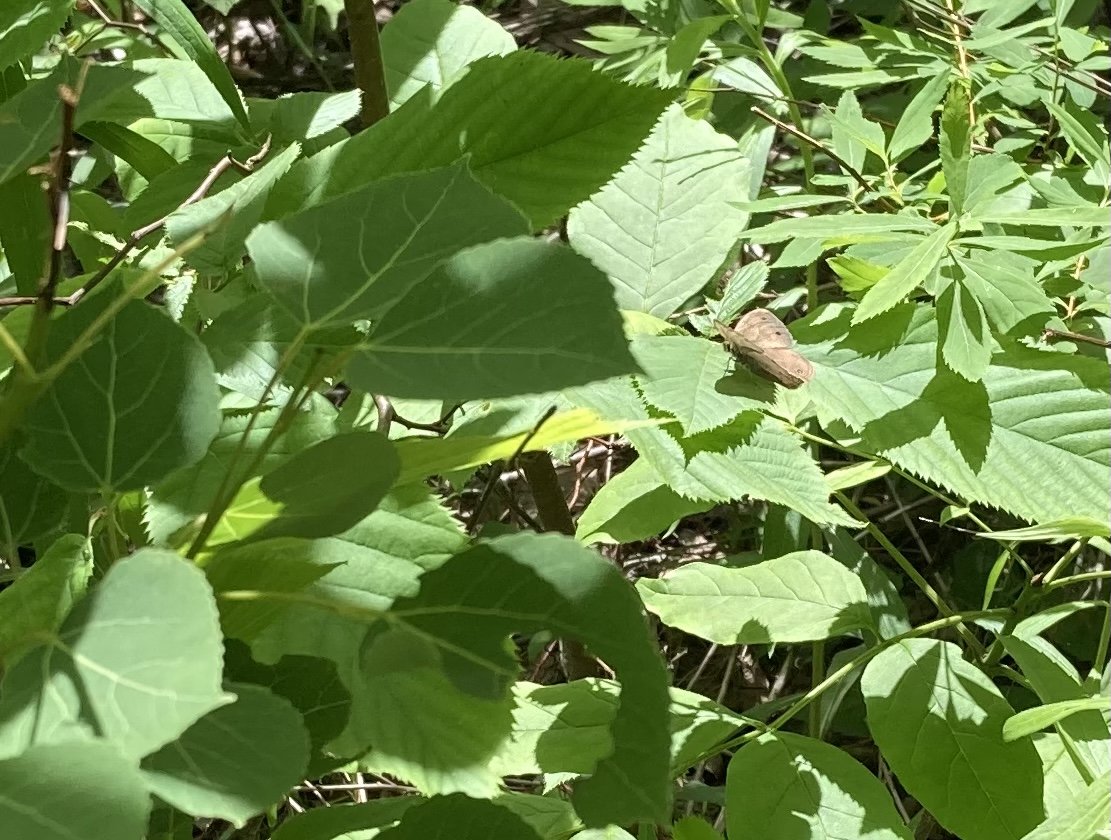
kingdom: Animalia
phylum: Arthropoda
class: Insecta
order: Lepidoptera
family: Nymphalidae
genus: Euptychia
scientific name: Euptychia cymela
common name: Little Wood Satyr
